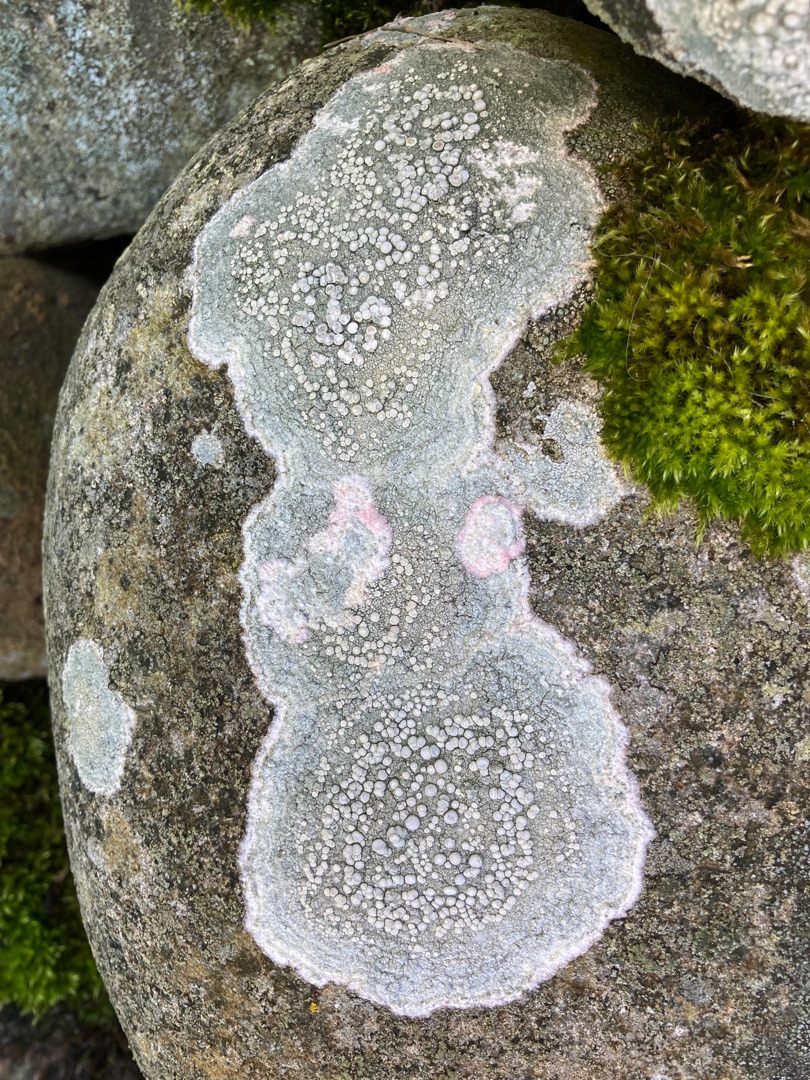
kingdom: Fungi
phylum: Ascomycota
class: Lecanoromycetes
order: Pertusariales
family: Ochrolechiaceae
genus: Ochrolechia
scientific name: Ochrolechia parella
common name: Almindelig blegskivelav
